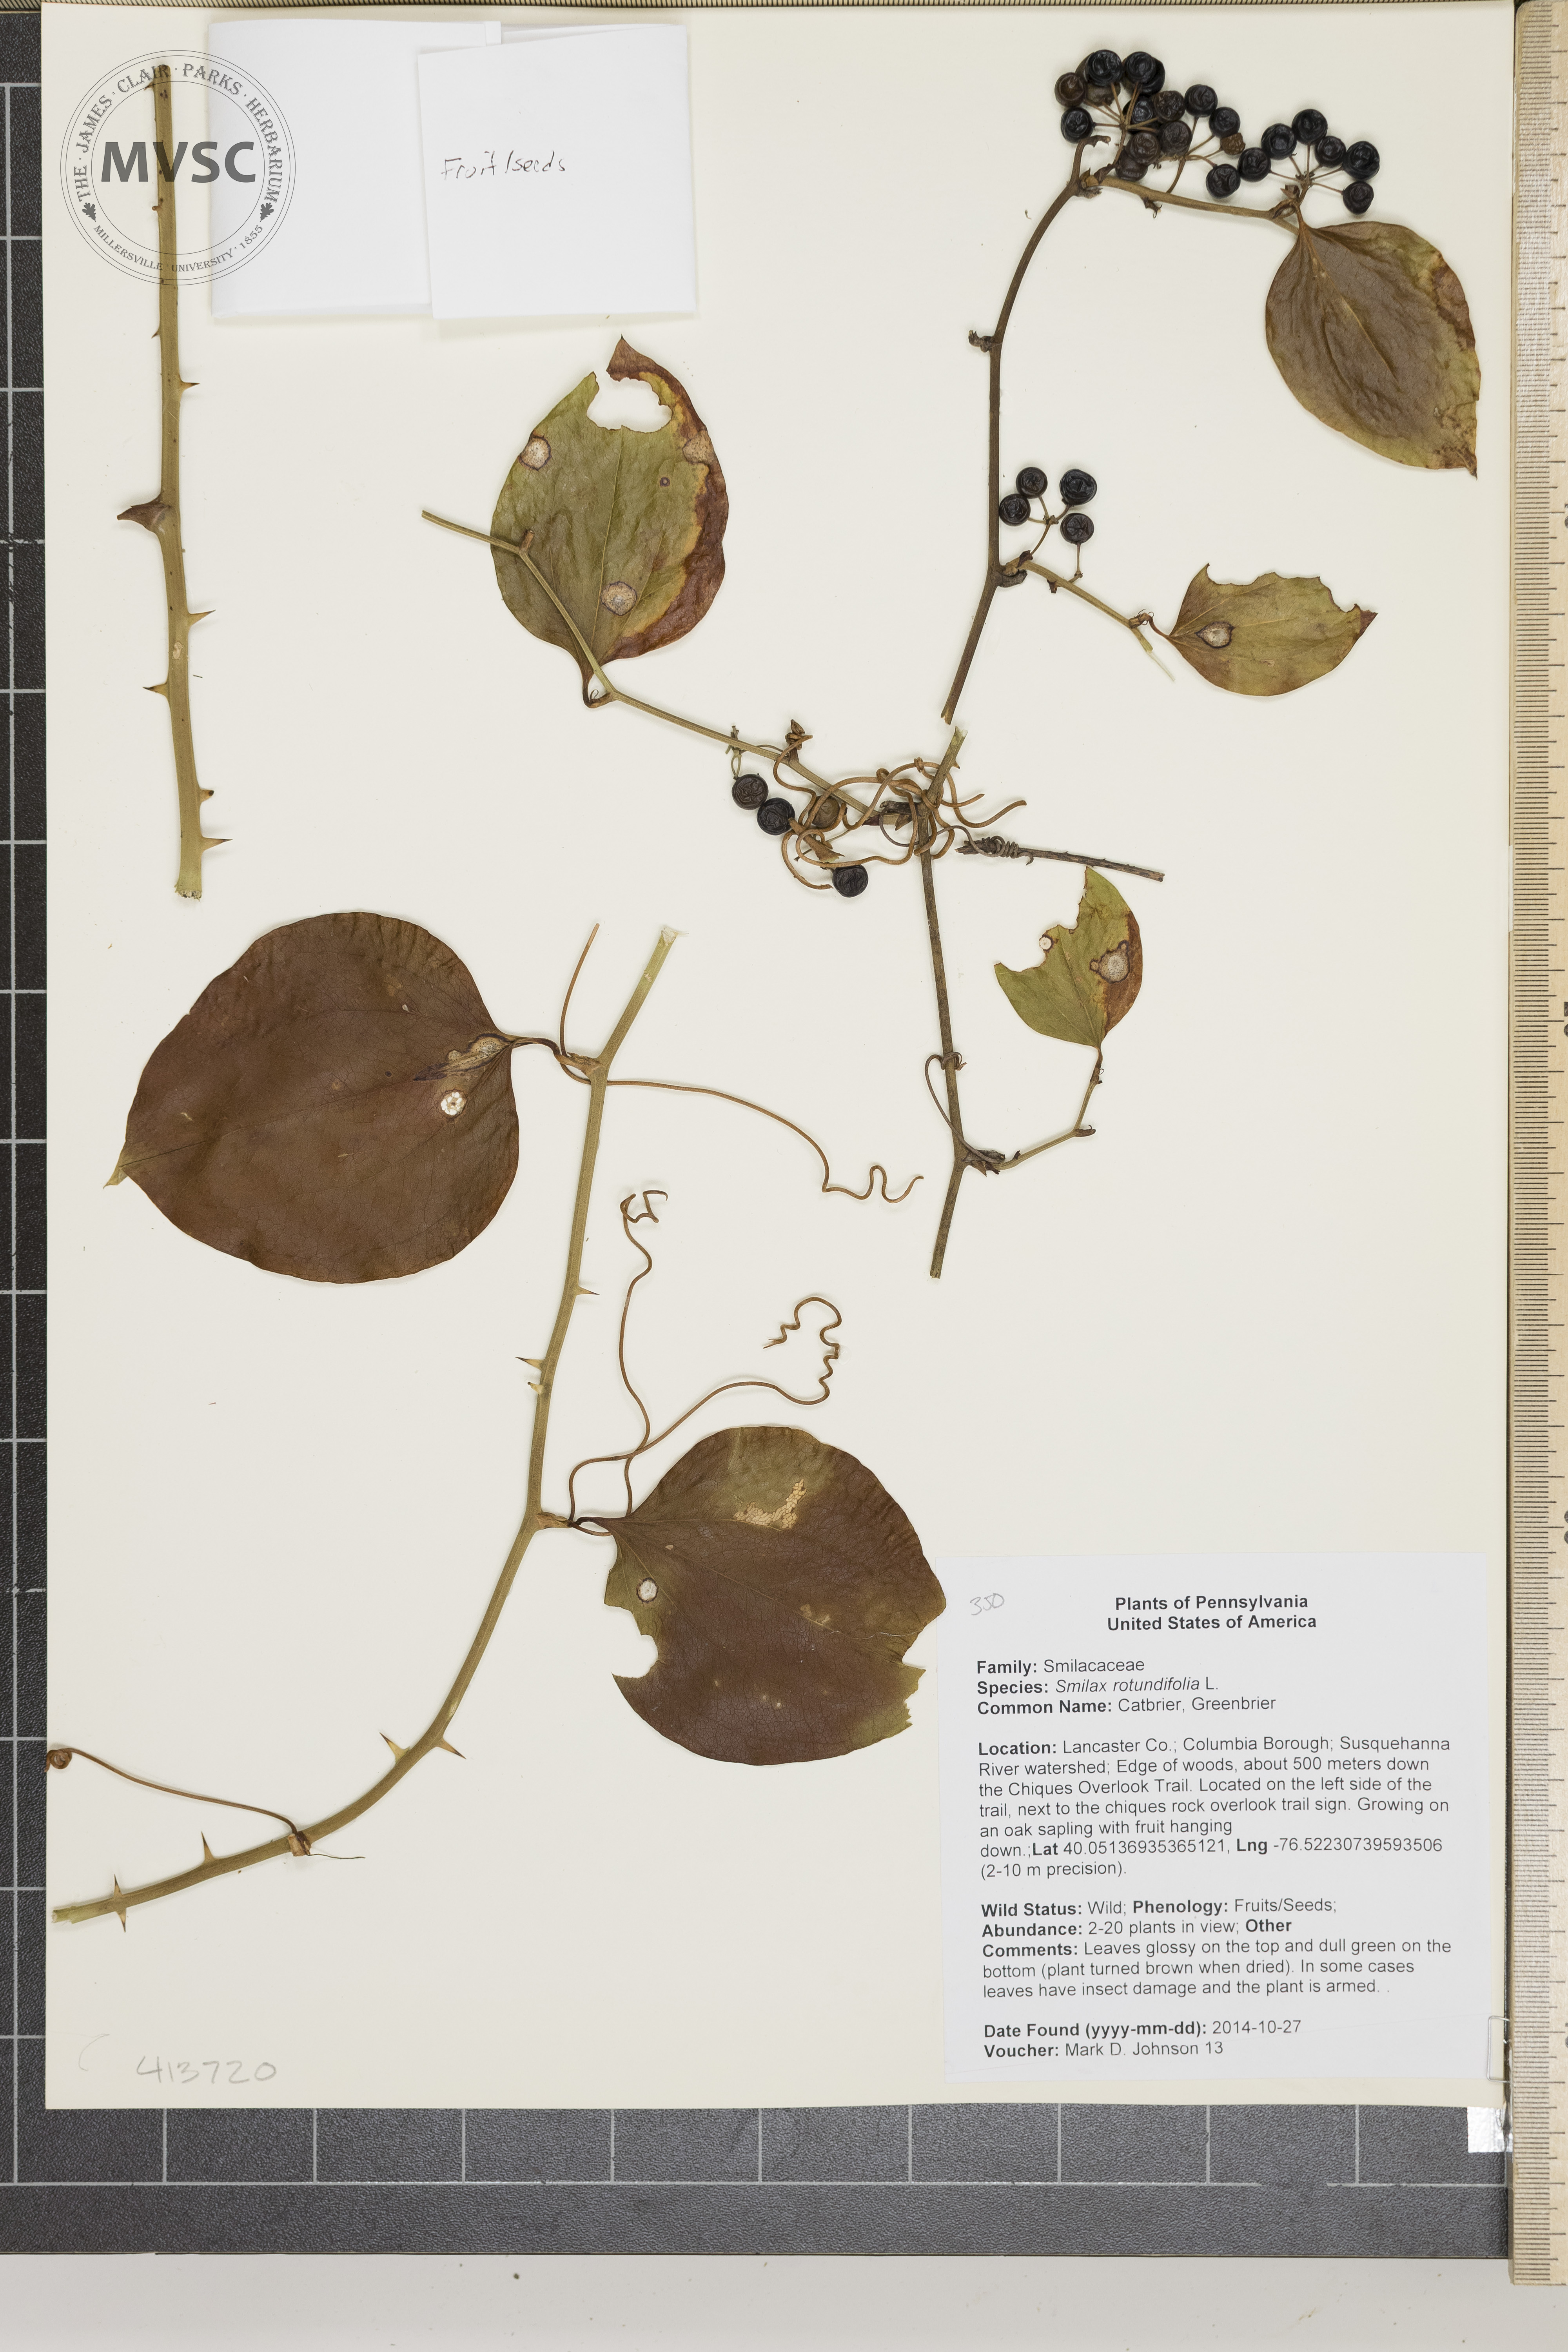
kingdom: Plantae
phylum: Tracheophyta
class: Liliopsida
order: Liliales
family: Smilacaceae
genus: Smilax
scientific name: Smilax rotundifolia
